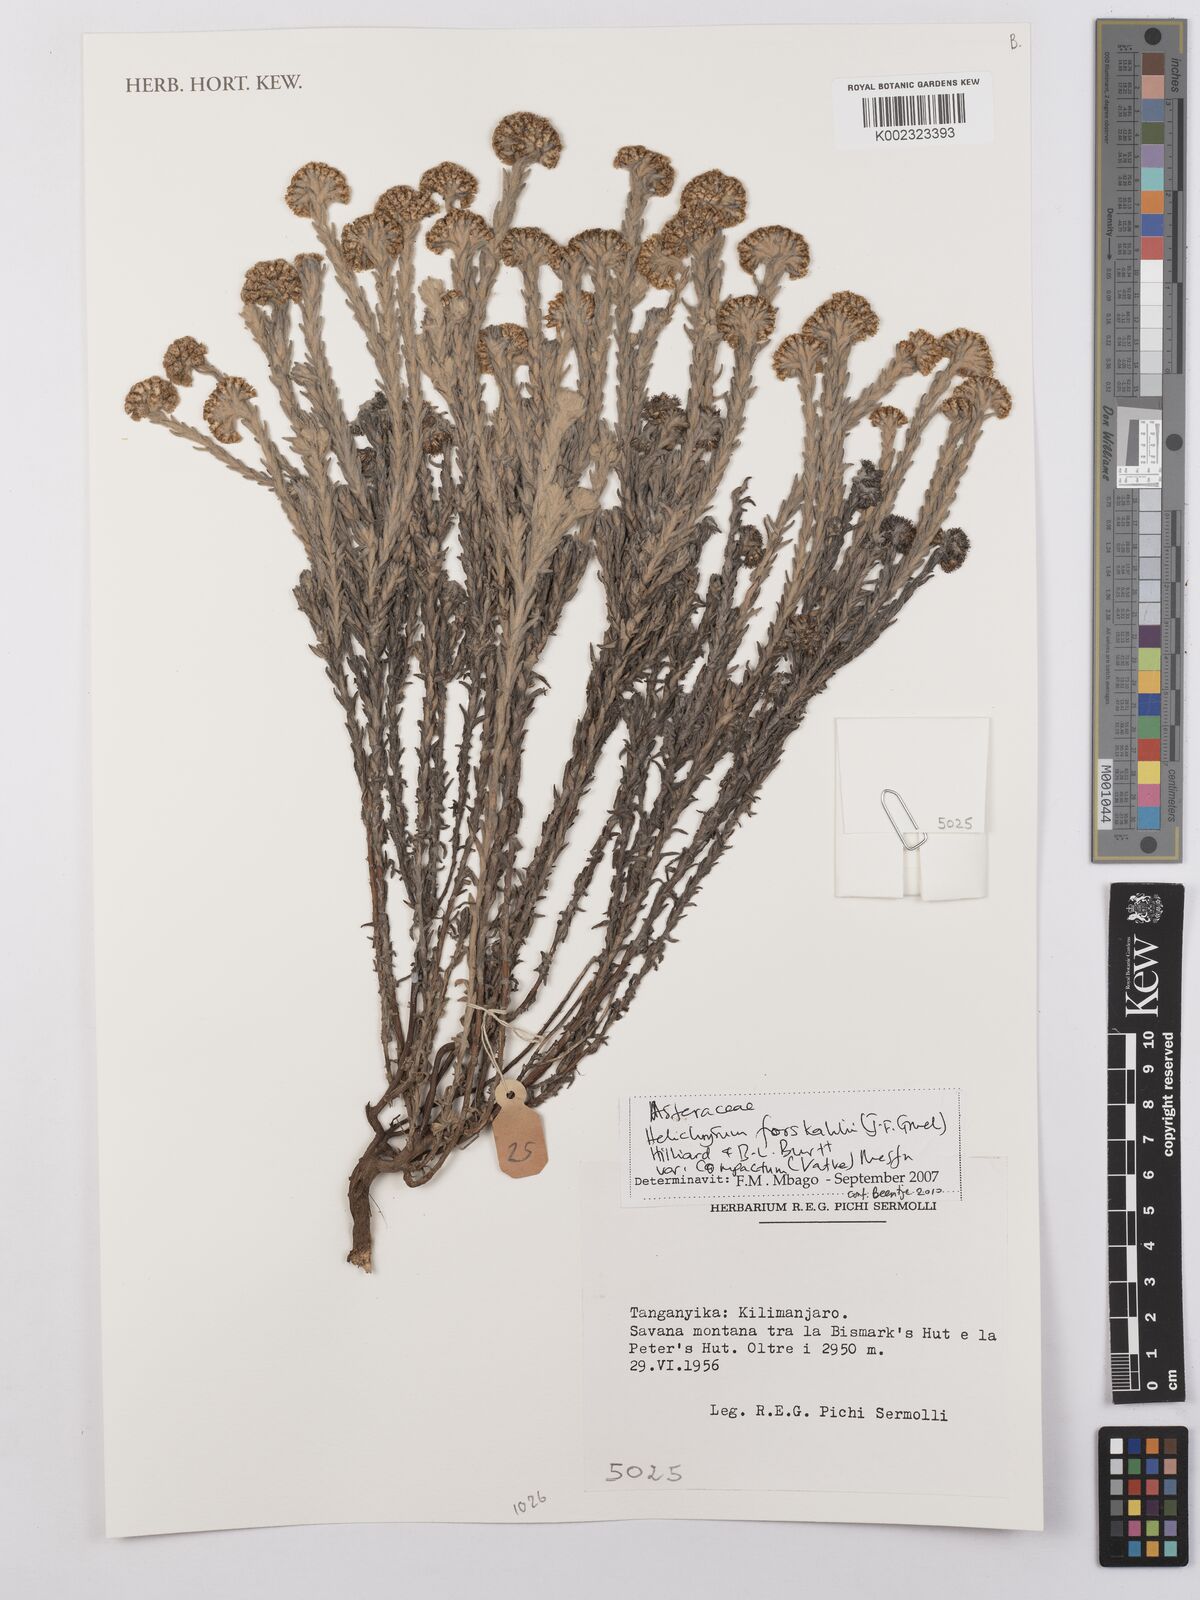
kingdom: Plantae
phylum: Tracheophyta
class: Magnoliopsida
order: Asterales
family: Asteraceae
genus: Helichrysum
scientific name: Helichrysum forskahlii
